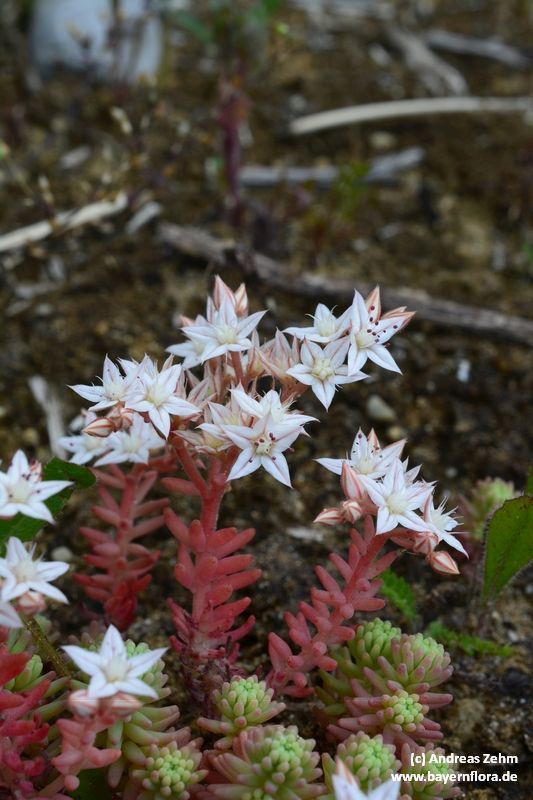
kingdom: Plantae
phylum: Tracheophyta
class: Magnoliopsida
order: Saxifragales
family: Crassulaceae
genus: Sedum
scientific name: Sedum album
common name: White stonecrop
